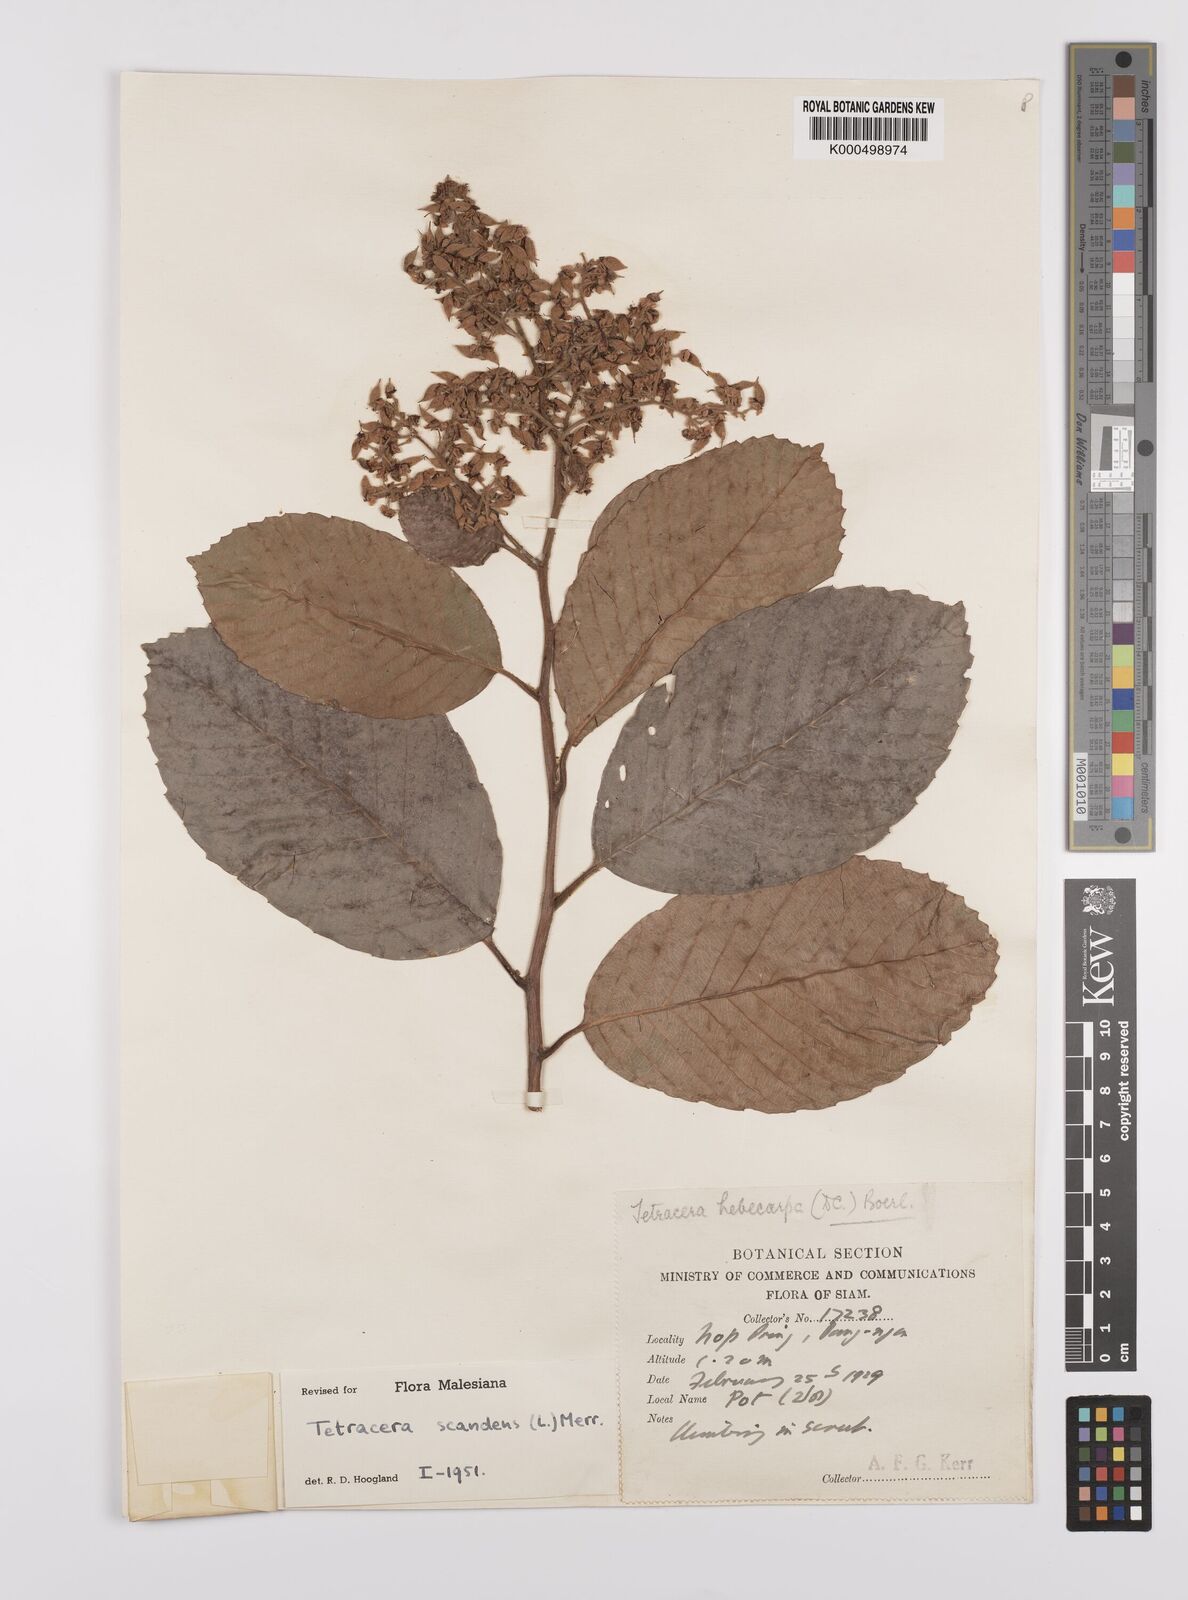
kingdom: Plantae
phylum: Tracheophyta
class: Magnoliopsida
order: Dilleniales
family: Dilleniaceae
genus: Tetracera
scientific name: Tetracera scandens
